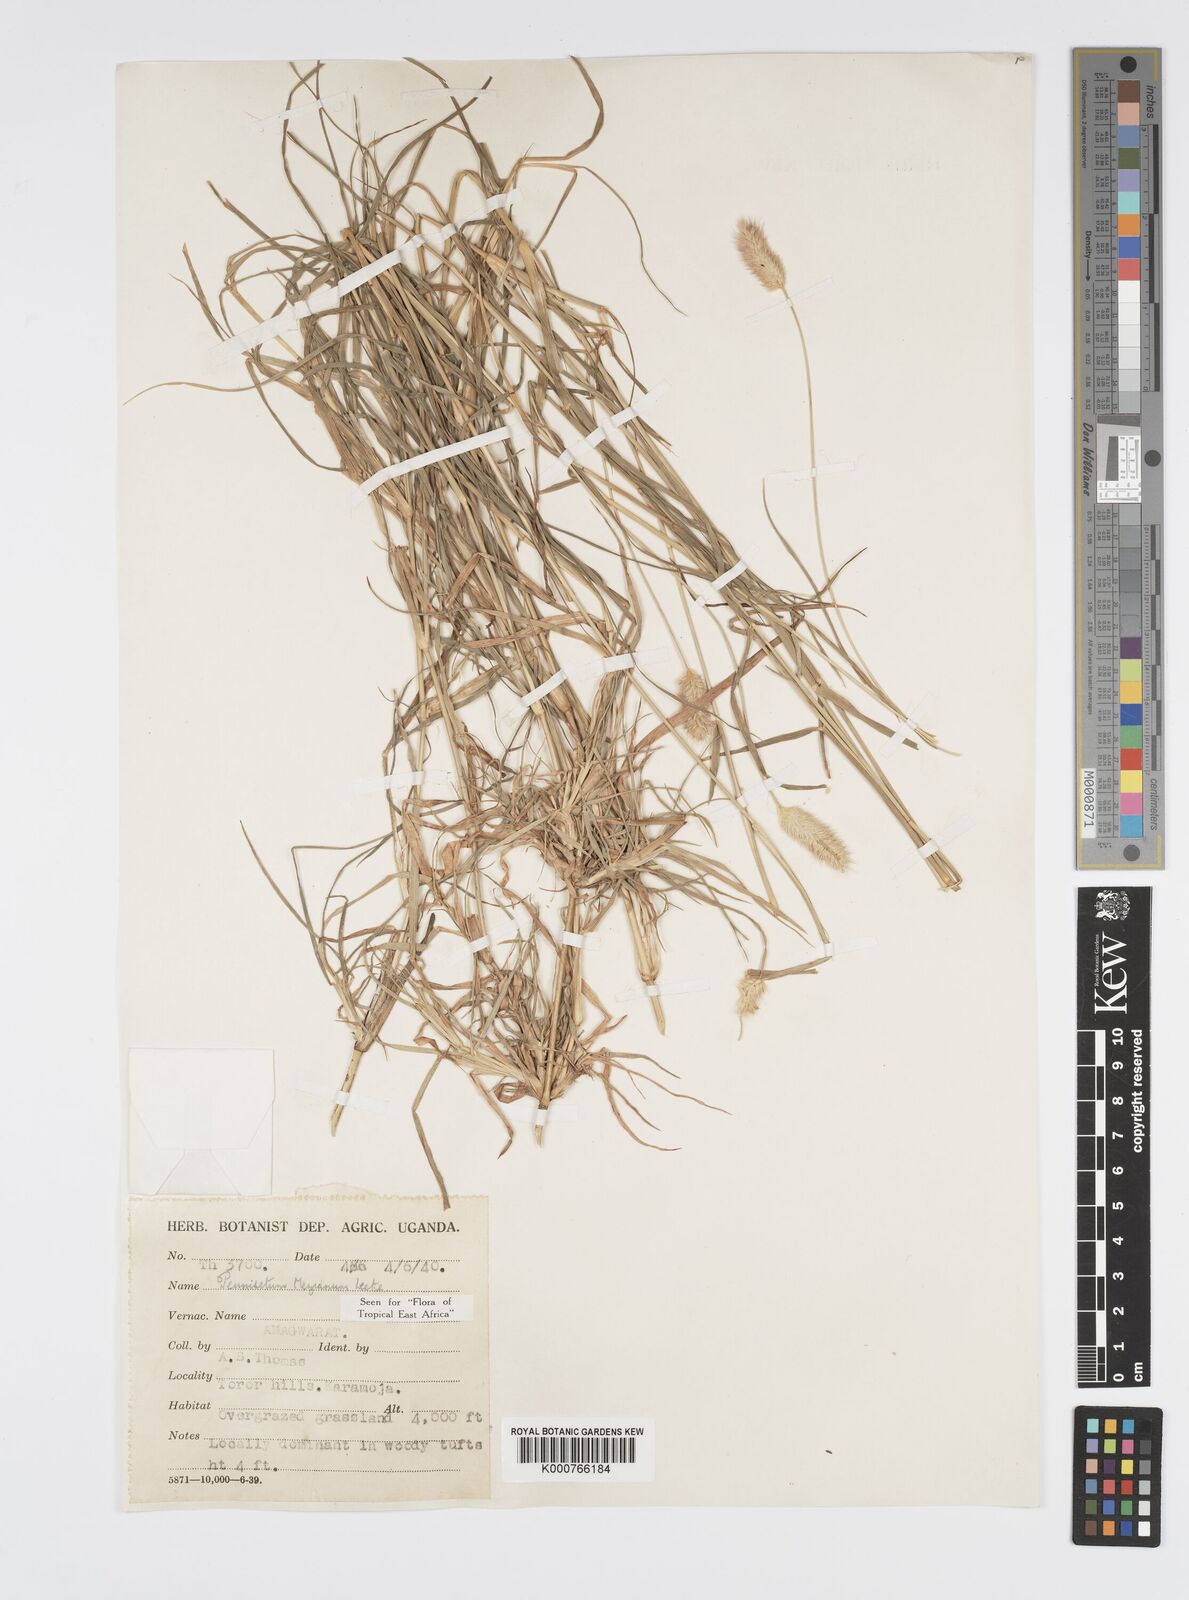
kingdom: Plantae
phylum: Tracheophyta
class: Liliopsida
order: Poales
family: Poaceae
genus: Cenchrus
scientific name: Cenchrus mezianus
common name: Bamboo grass
